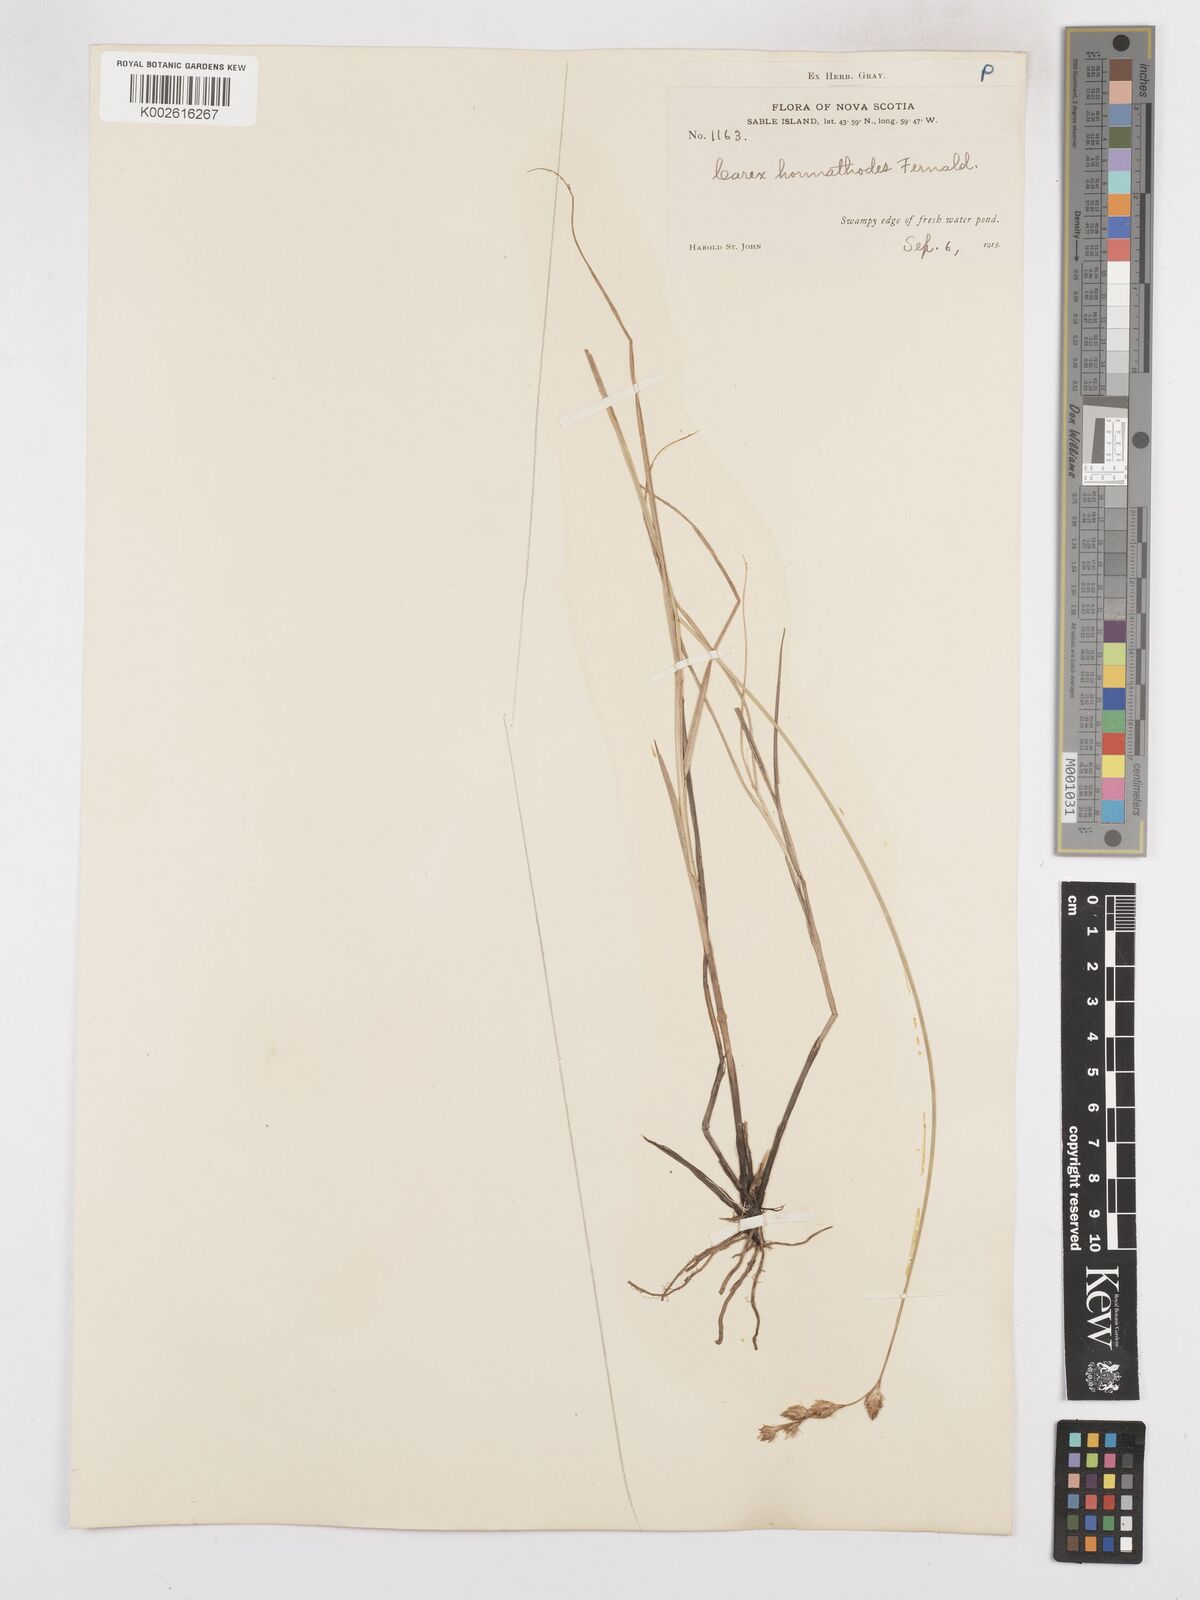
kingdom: Plantae
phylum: Tracheophyta
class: Liliopsida
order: Poales
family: Cyperaceae
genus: Carex
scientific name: Carex hormathodes
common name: Marsh straw sedge
